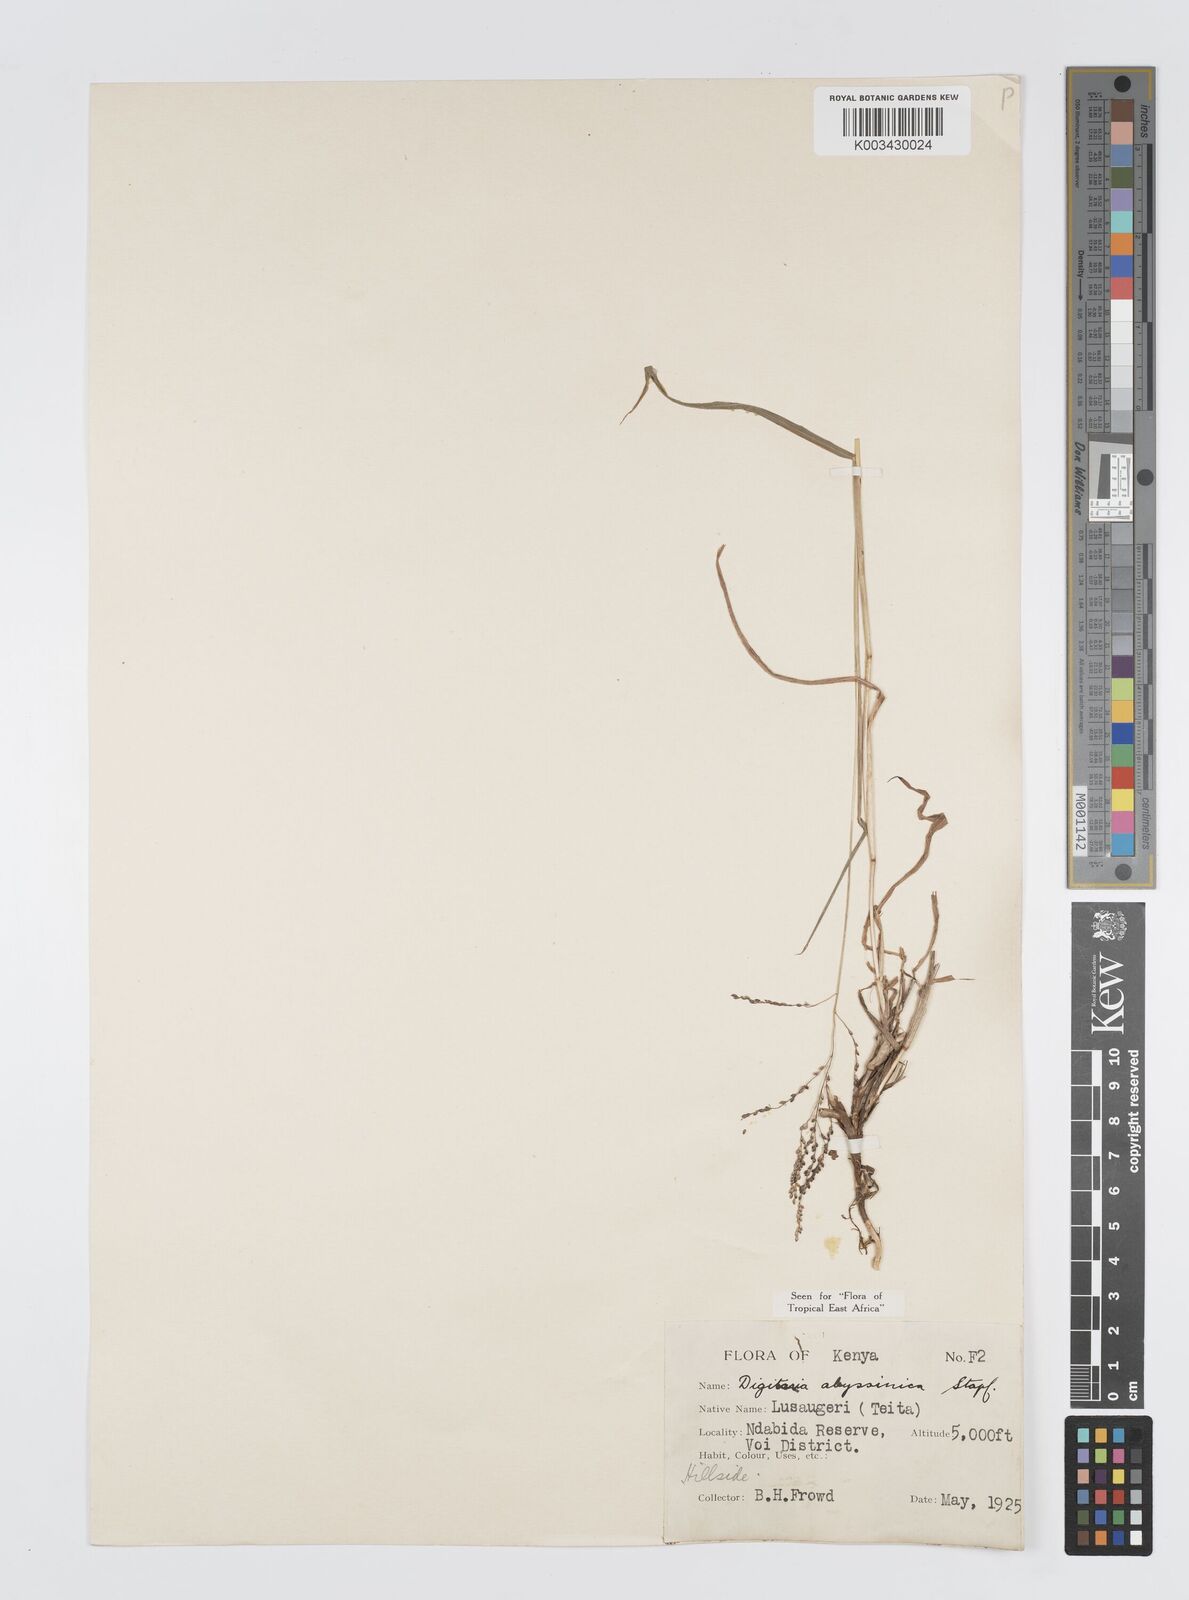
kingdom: Plantae
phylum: Tracheophyta
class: Liliopsida
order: Poales
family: Poaceae
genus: Digitaria
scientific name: Digitaria abyssinica
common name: African couchgrass
